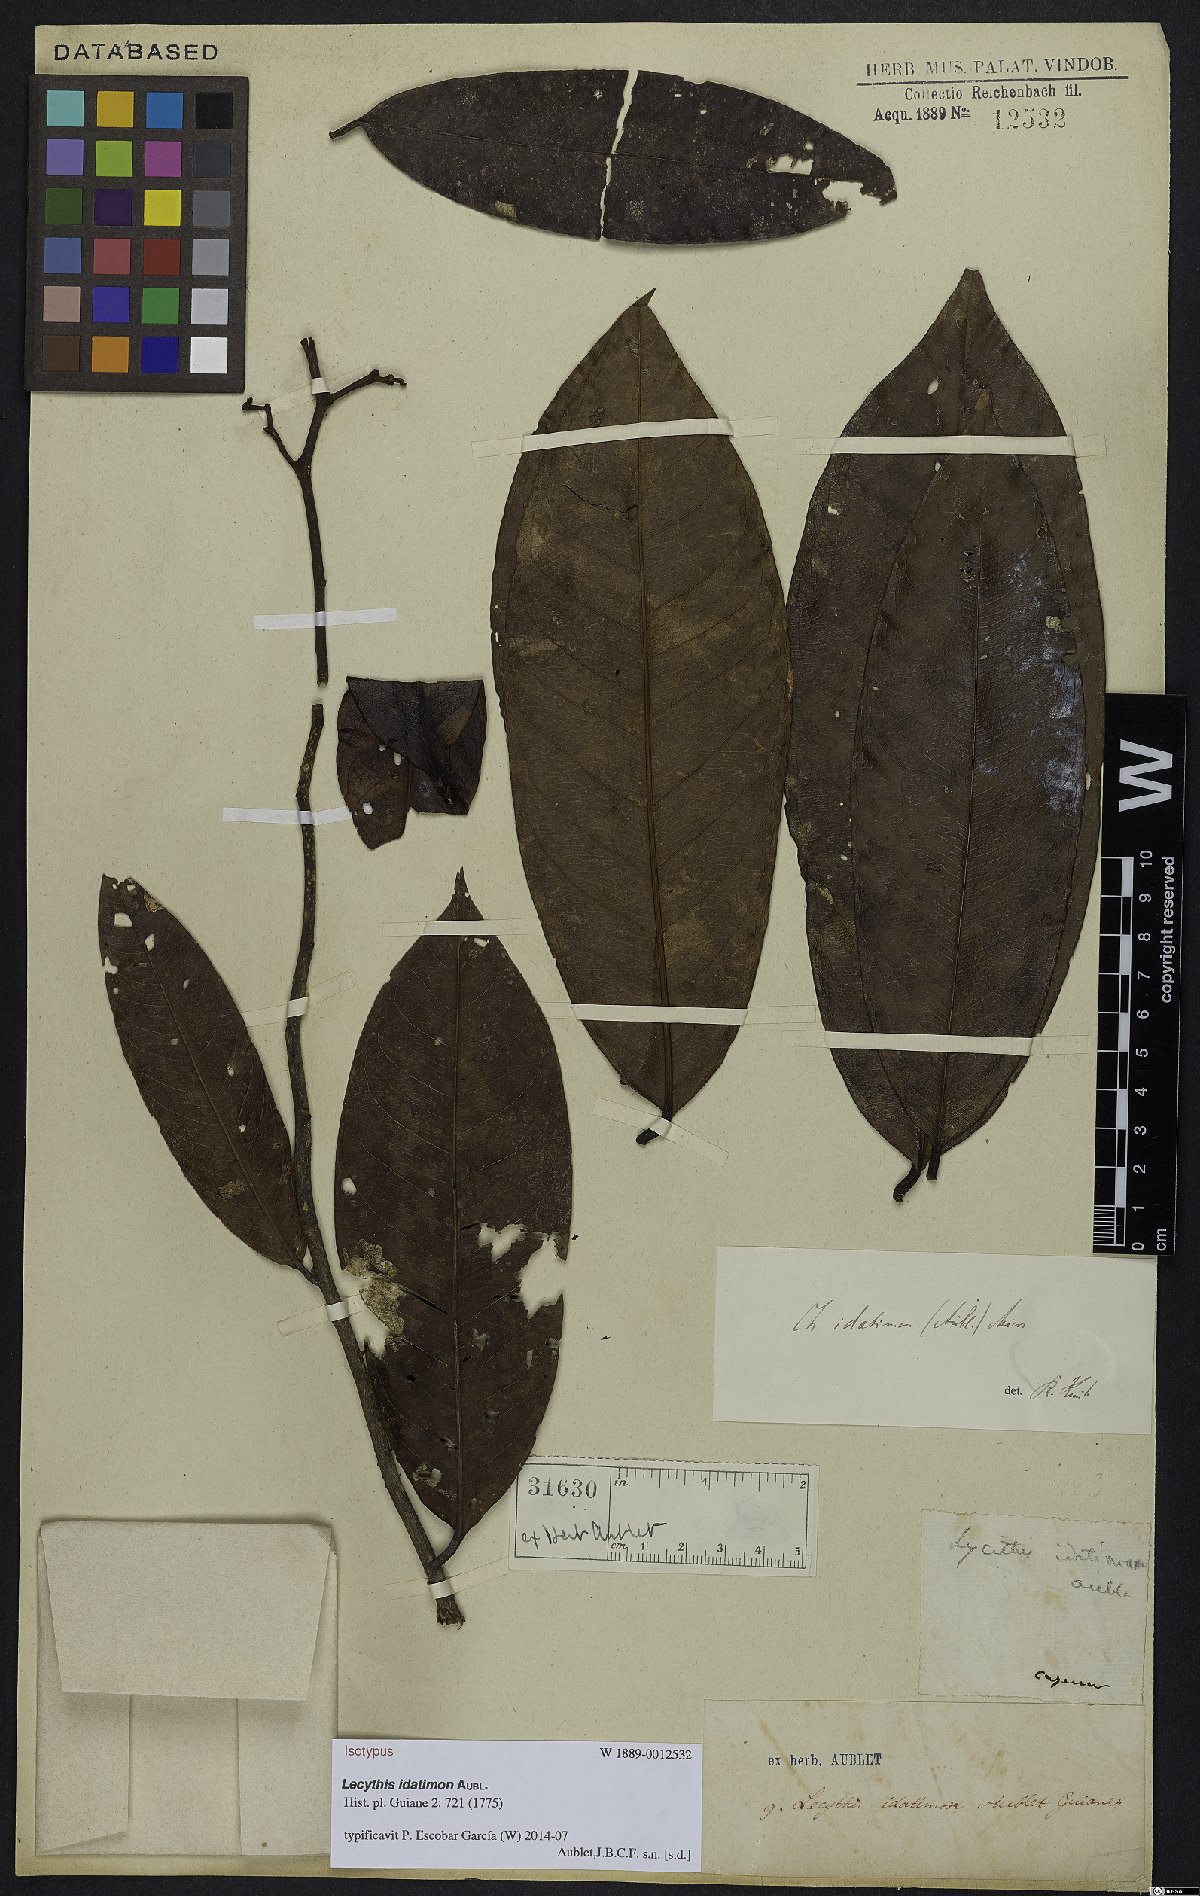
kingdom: Plantae
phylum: Tracheophyta
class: Magnoliopsida
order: Ericales
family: Lecythidaceae
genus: Lecythis
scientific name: Lecythis idatimon
